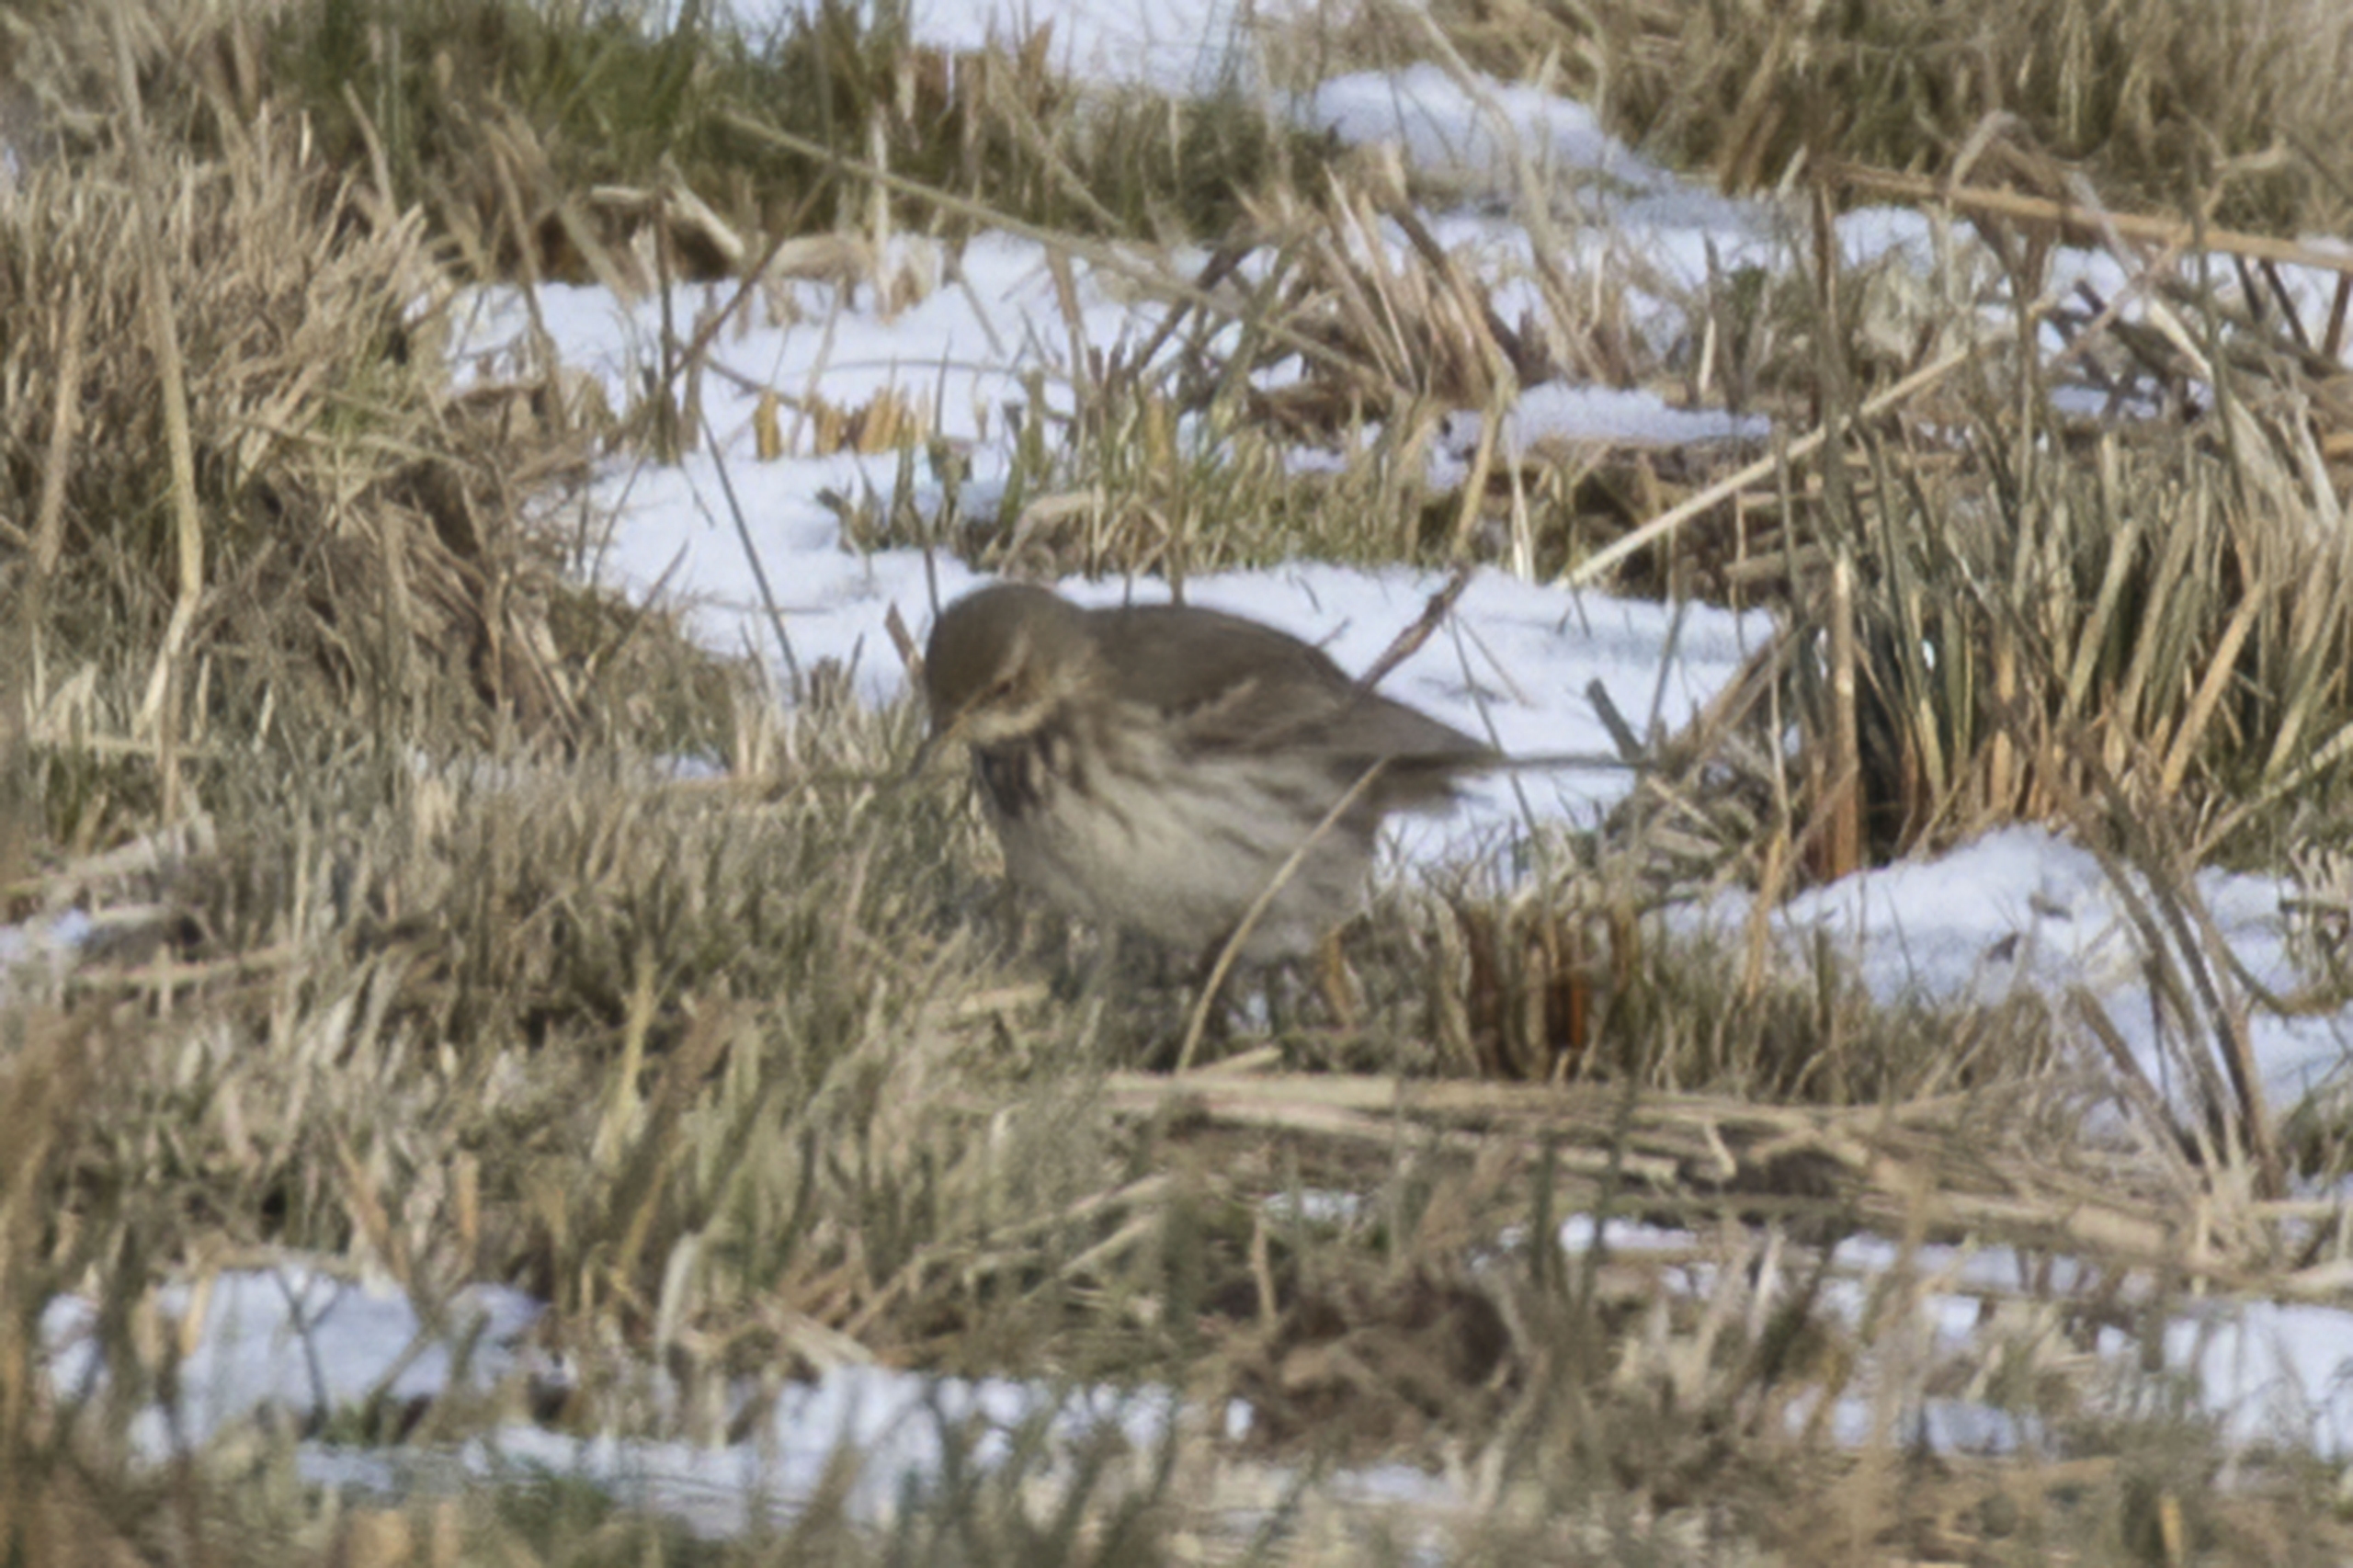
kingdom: Animalia
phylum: Chordata
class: Aves
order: Passeriformes
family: Motacillidae
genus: Anthus
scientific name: Anthus spinoletta
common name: Bjergpiber
